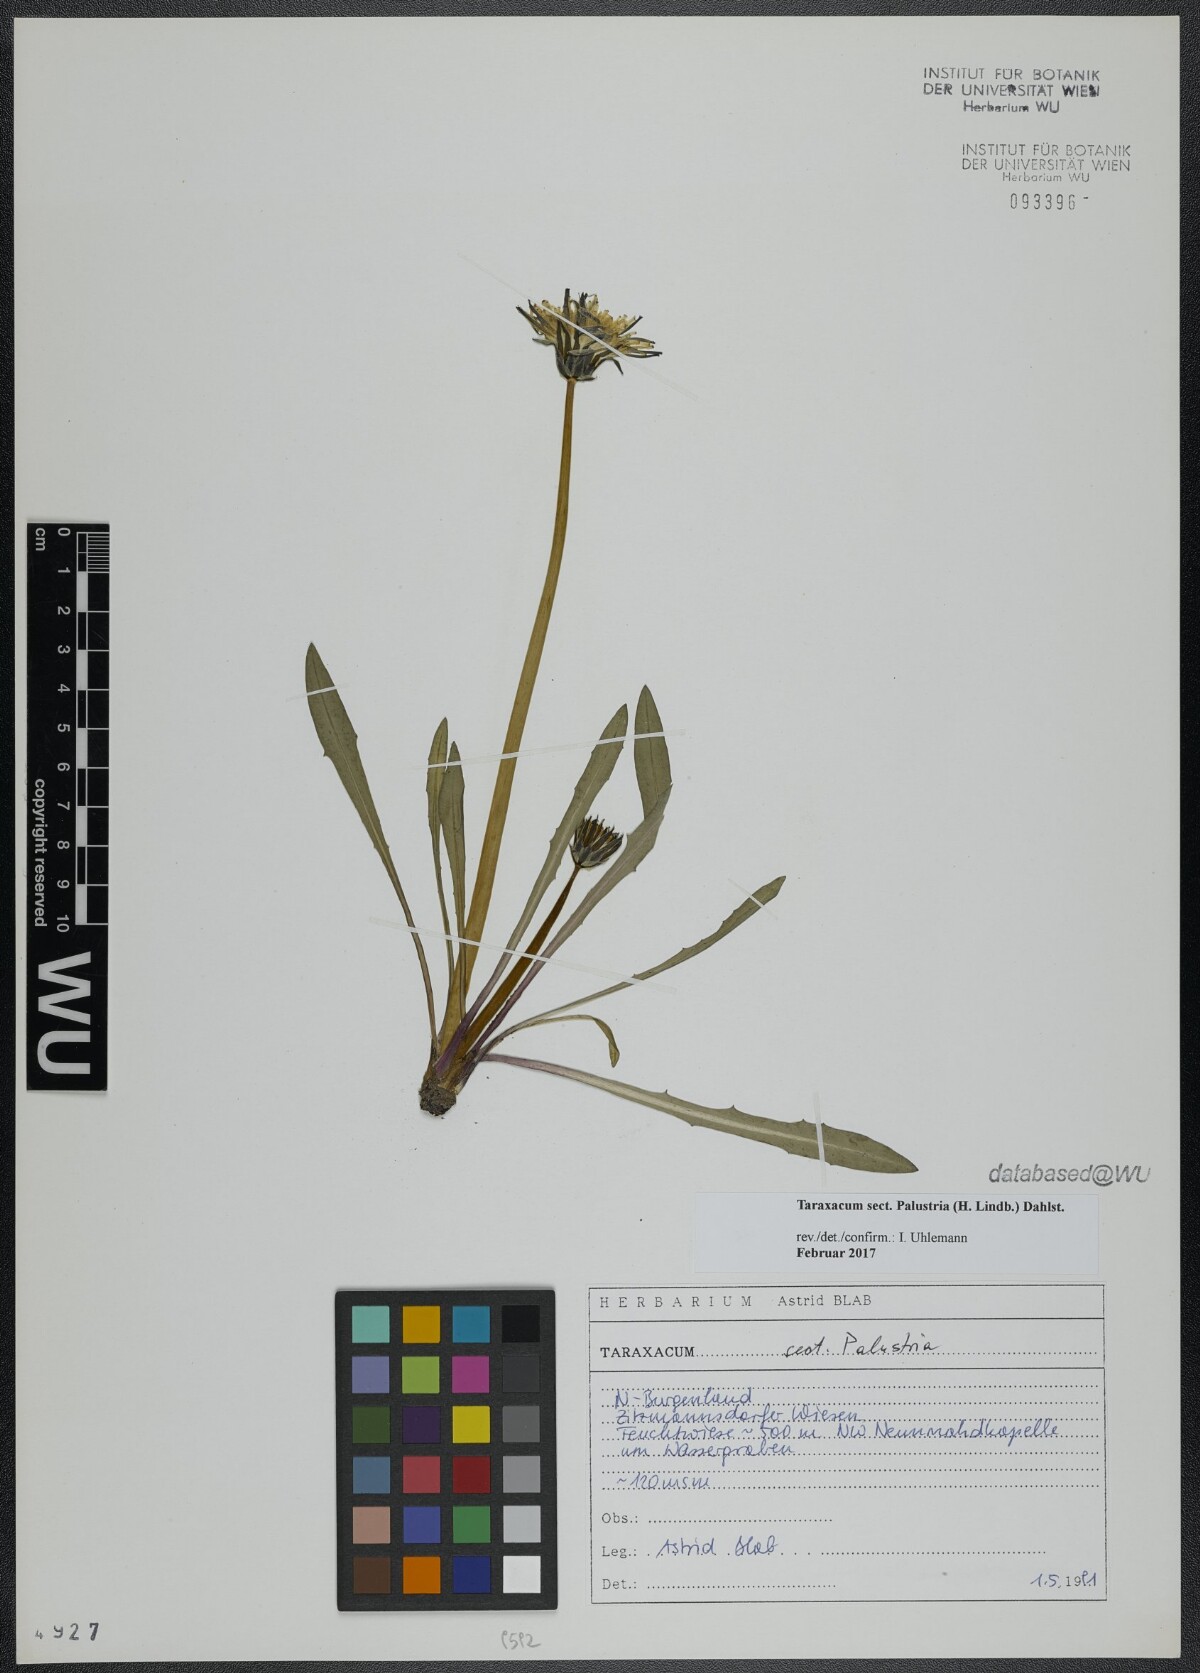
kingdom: Plantae
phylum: Tracheophyta
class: Magnoliopsida
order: Asterales
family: Asteraceae
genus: Taraxacum
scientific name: Taraxacum
